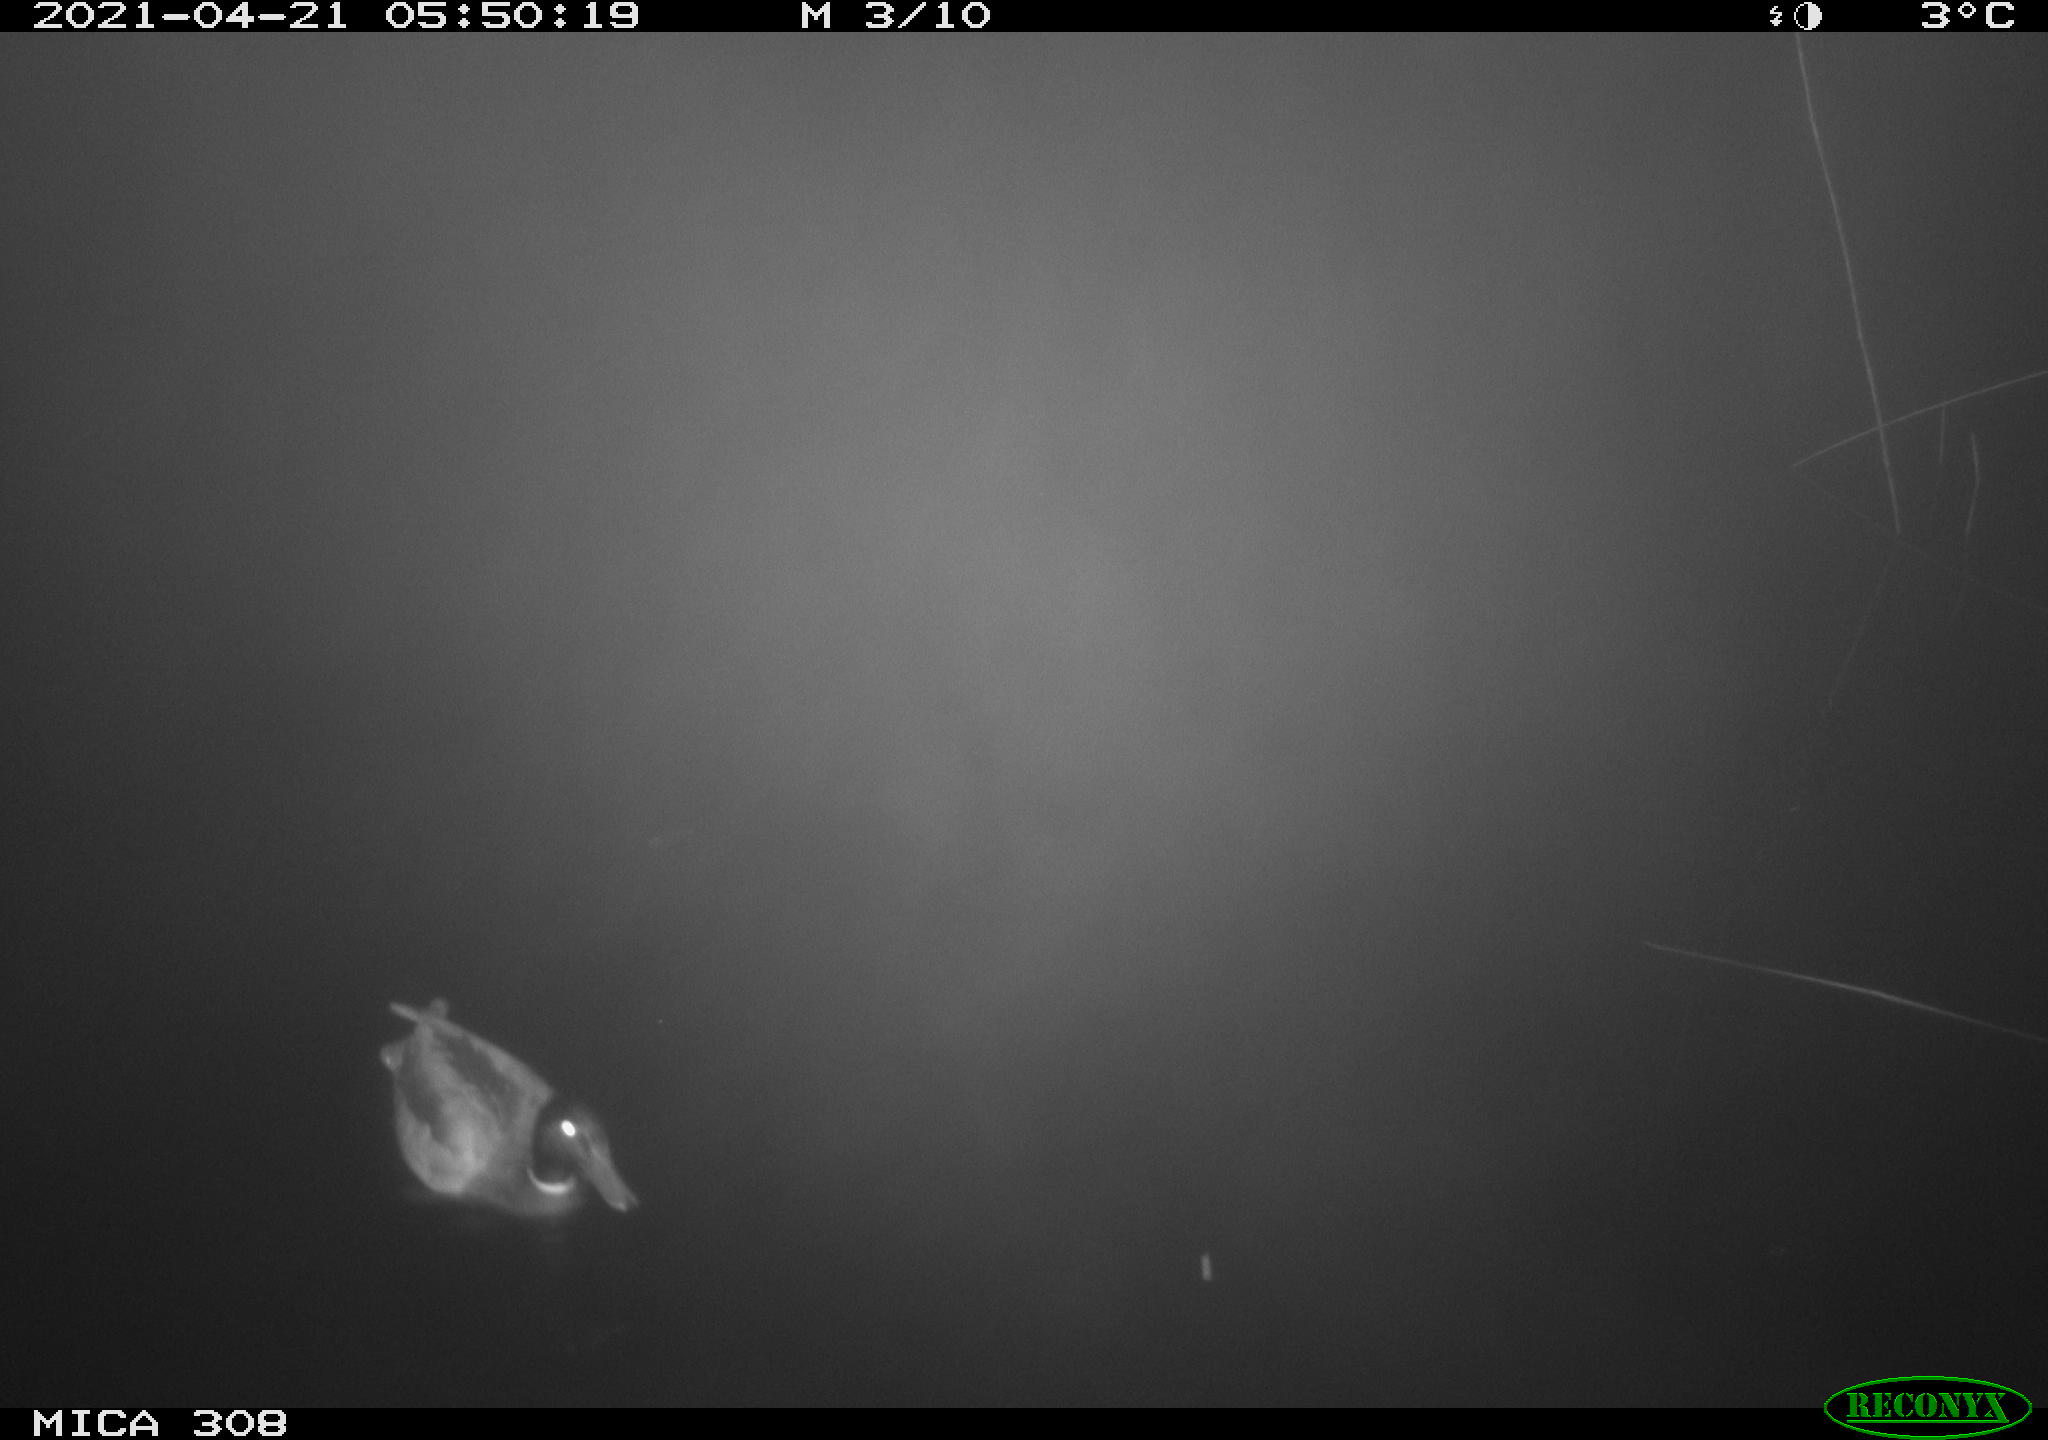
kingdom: Animalia
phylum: Chordata
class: Aves
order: Anseriformes
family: Anatidae
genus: Anas
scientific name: Anas platyrhynchos
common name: Mallard
